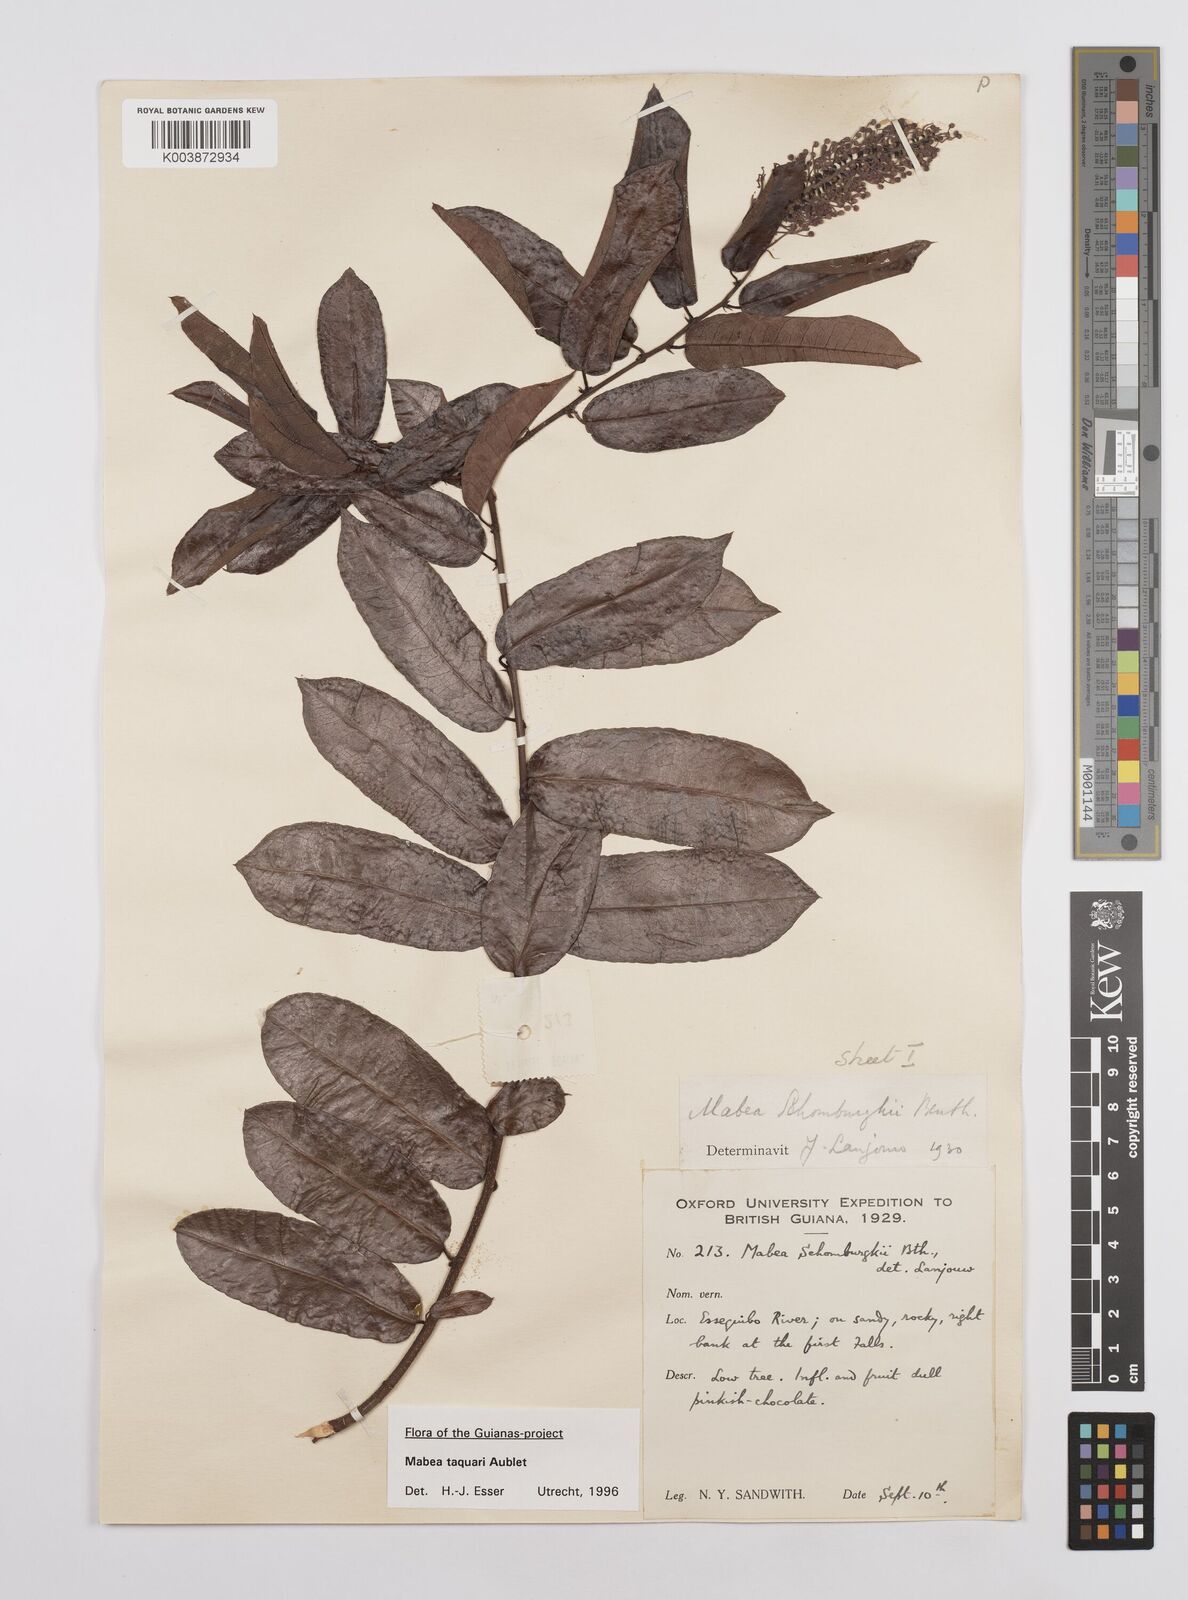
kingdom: Plantae
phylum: Tracheophyta
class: Magnoliopsida
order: Malpighiales
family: Euphorbiaceae
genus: Mabea
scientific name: Mabea taquari
